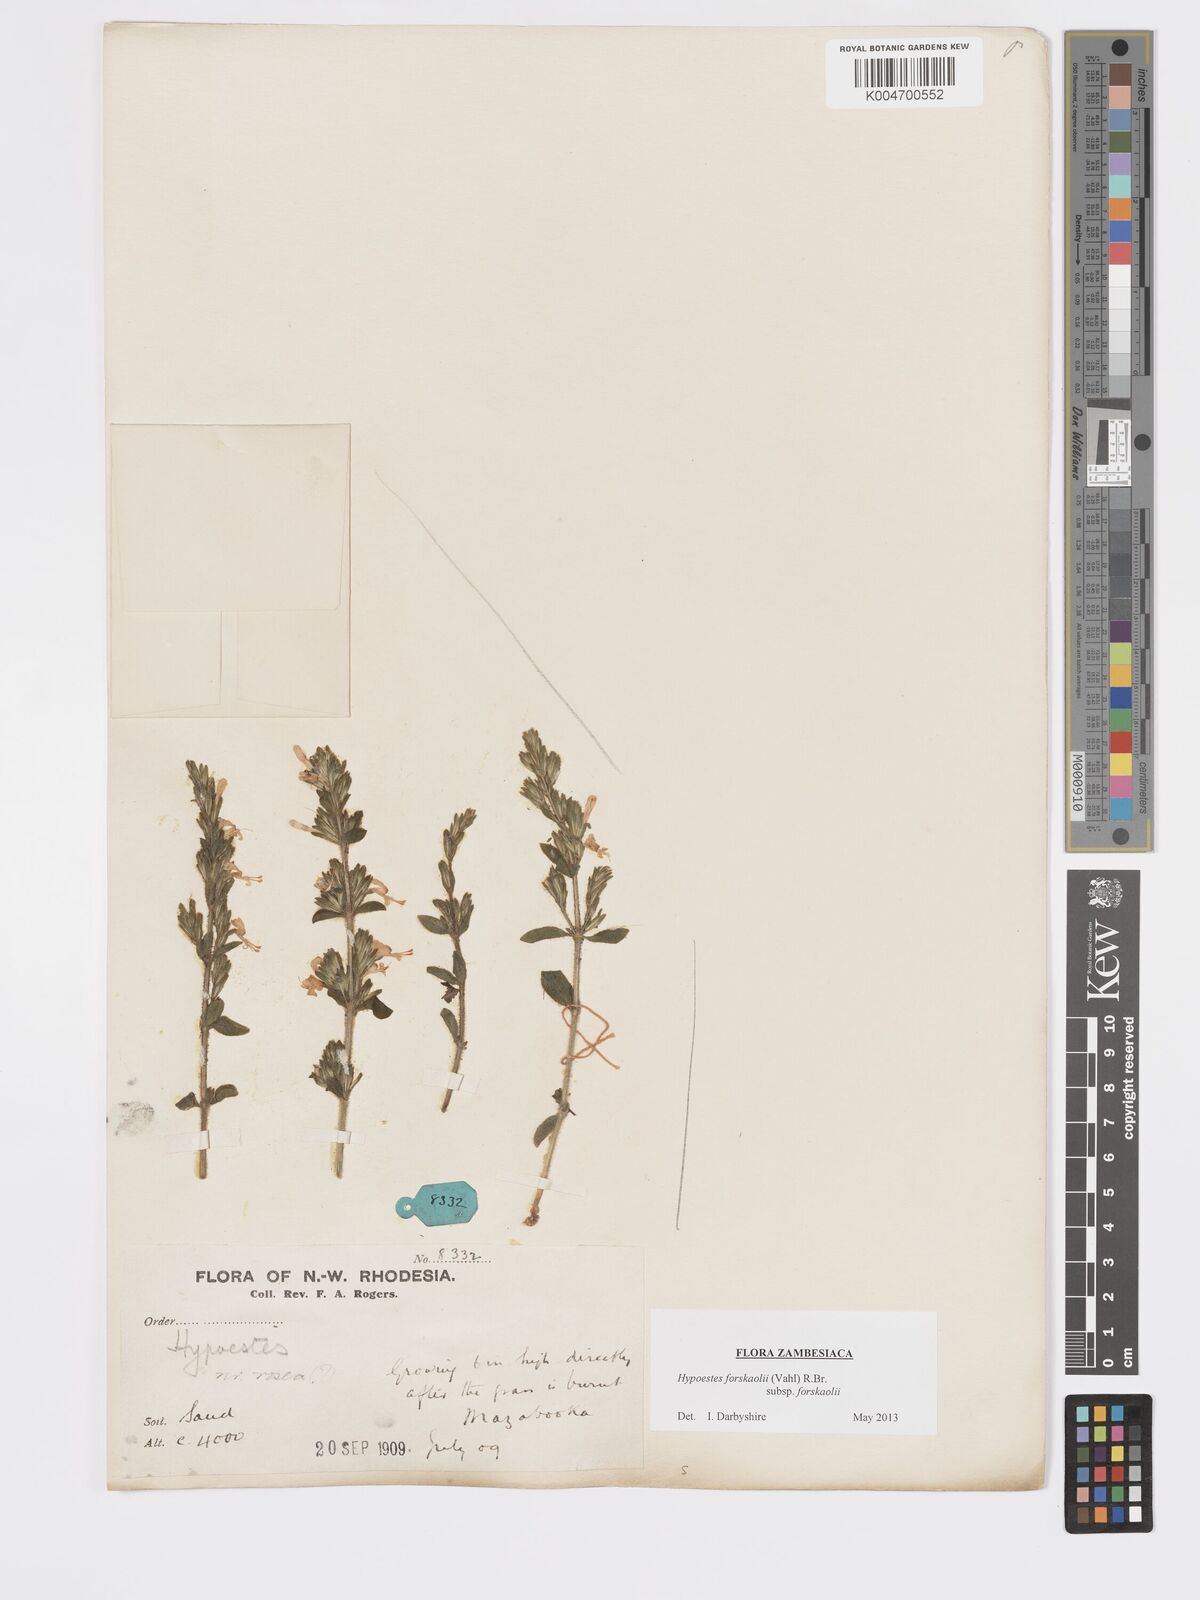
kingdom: Plantae
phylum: Tracheophyta
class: Magnoliopsida
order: Lamiales
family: Acanthaceae
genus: Hypoestes
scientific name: Hypoestes forskaolii
